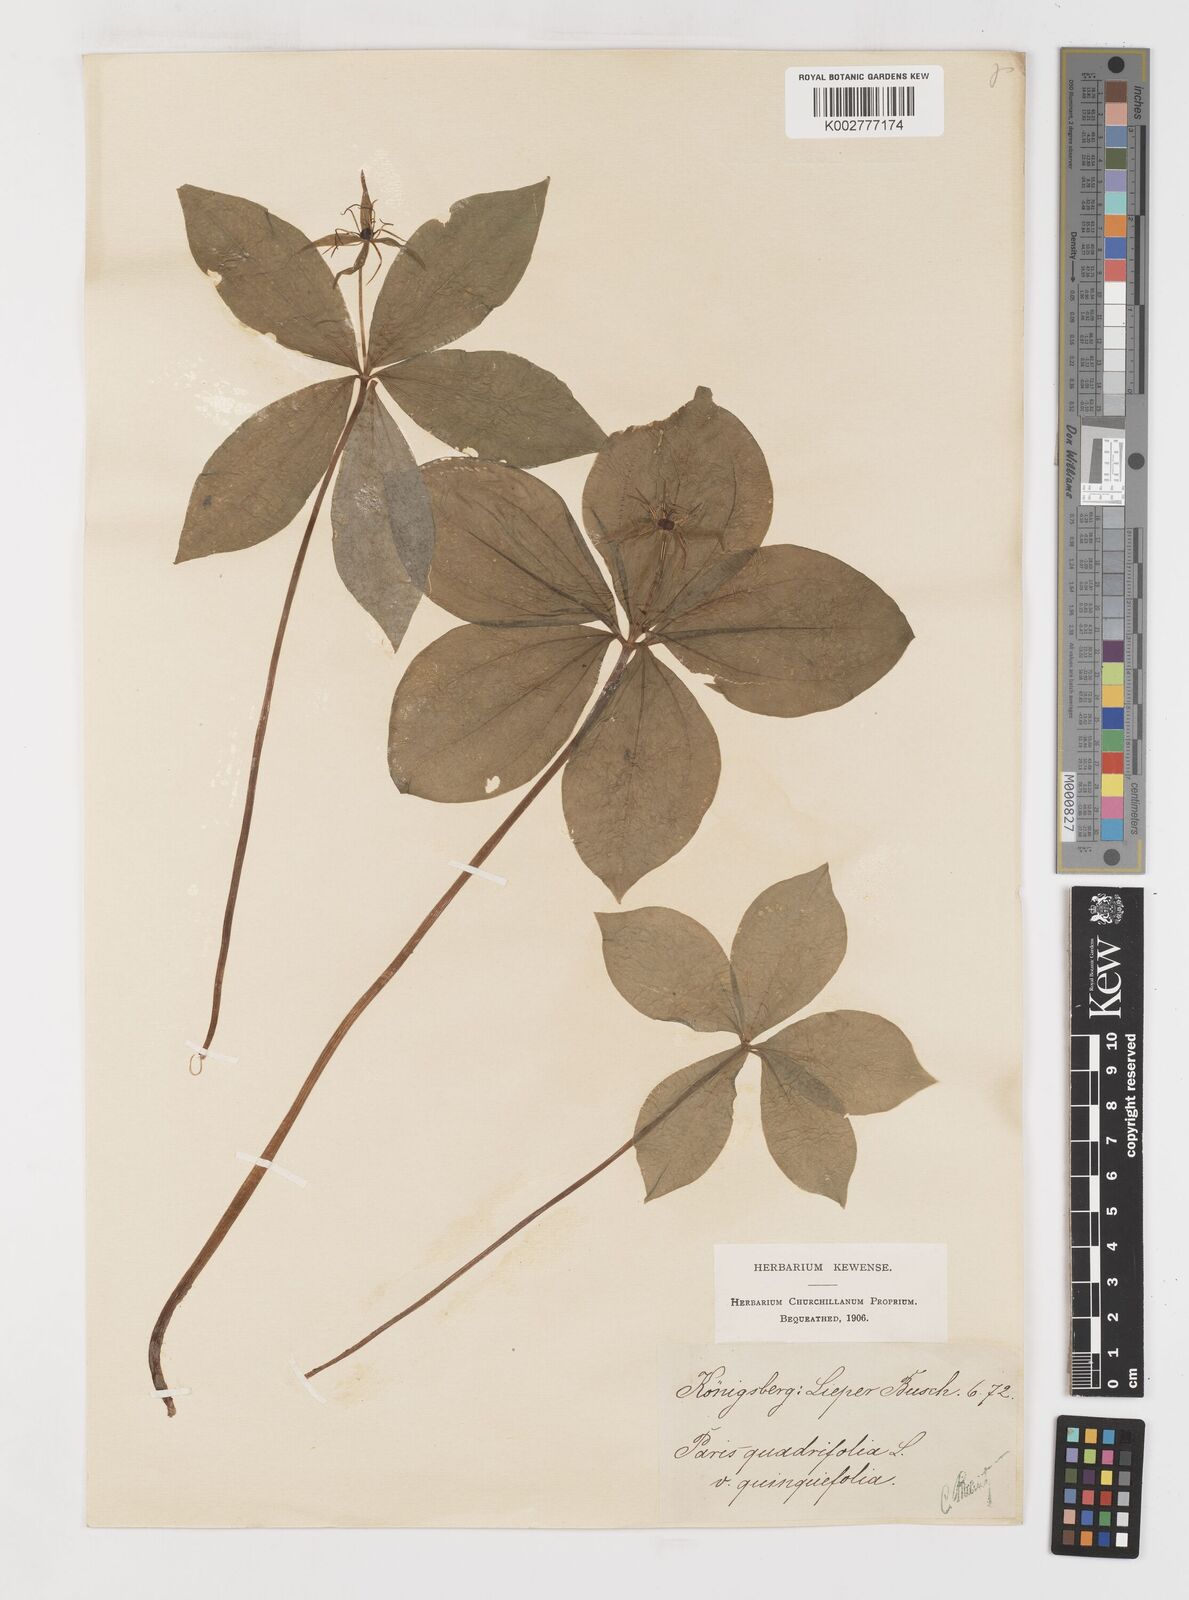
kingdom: Plantae
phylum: Tracheophyta
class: Liliopsida
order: Liliales
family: Melanthiaceae
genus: Paris
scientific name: Paris quadrifolia
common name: Herb-paris
